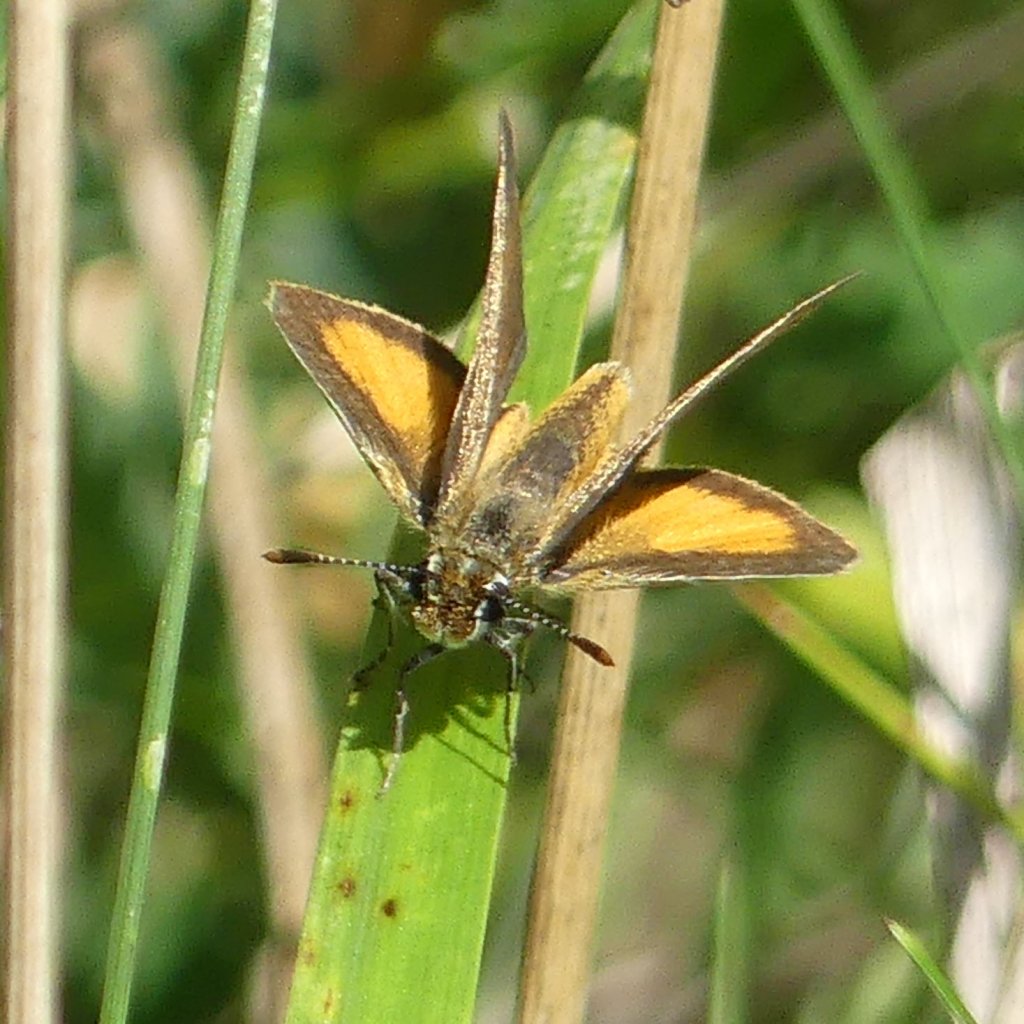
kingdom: Animalia
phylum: Arthropoda
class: Insecta
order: Lepidoptera
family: Hesperiidae
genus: Ancyloxypha
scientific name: Ancyloxypha numitor
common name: Least Skipper
